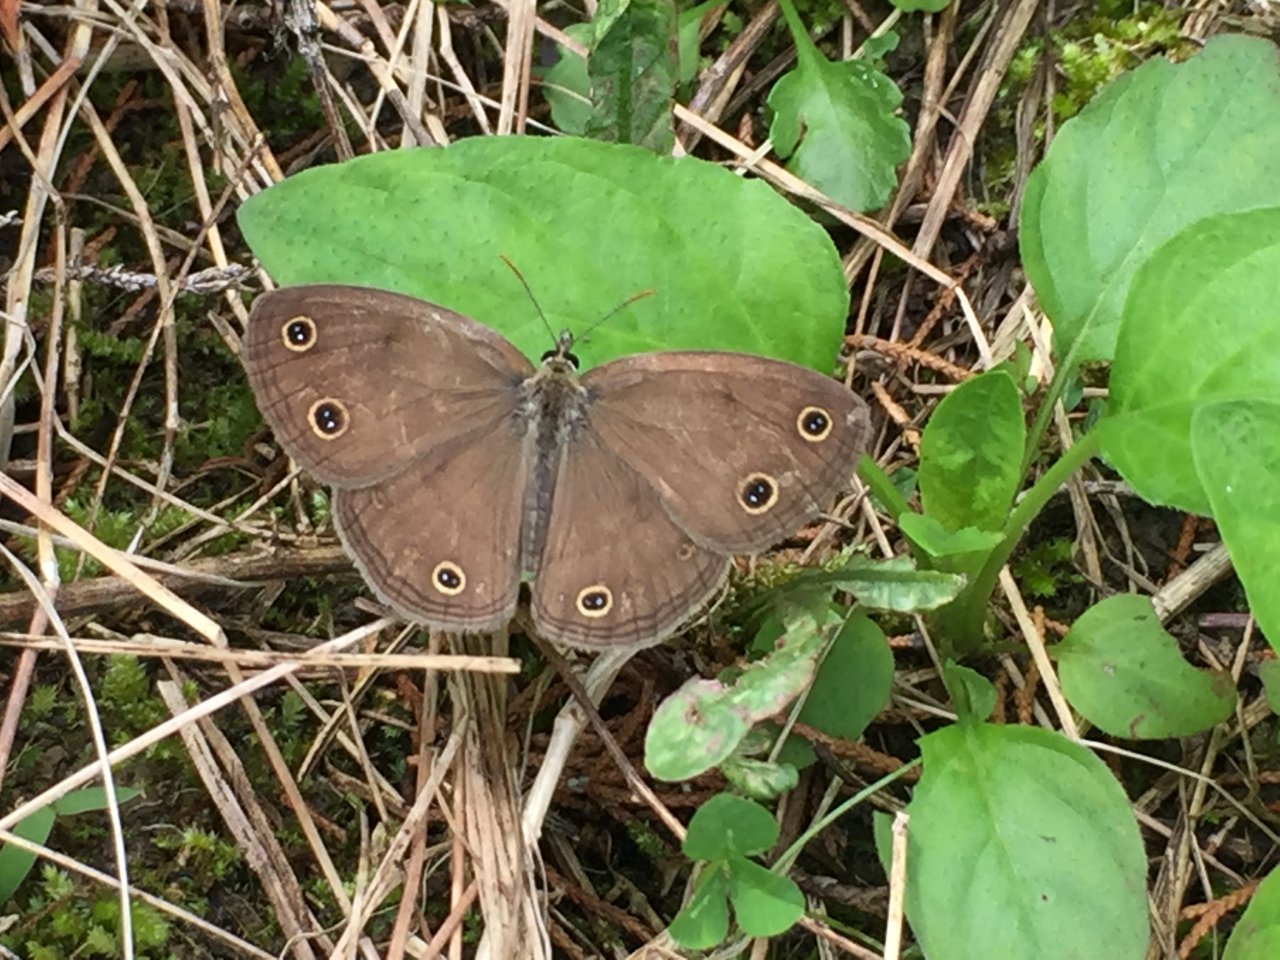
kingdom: Animalia
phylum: Arthropoda
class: Insecta
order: Lepidoptera
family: Nymphalidae
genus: Euptychia
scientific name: Euptychia cymela
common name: Little Wood Satyr
